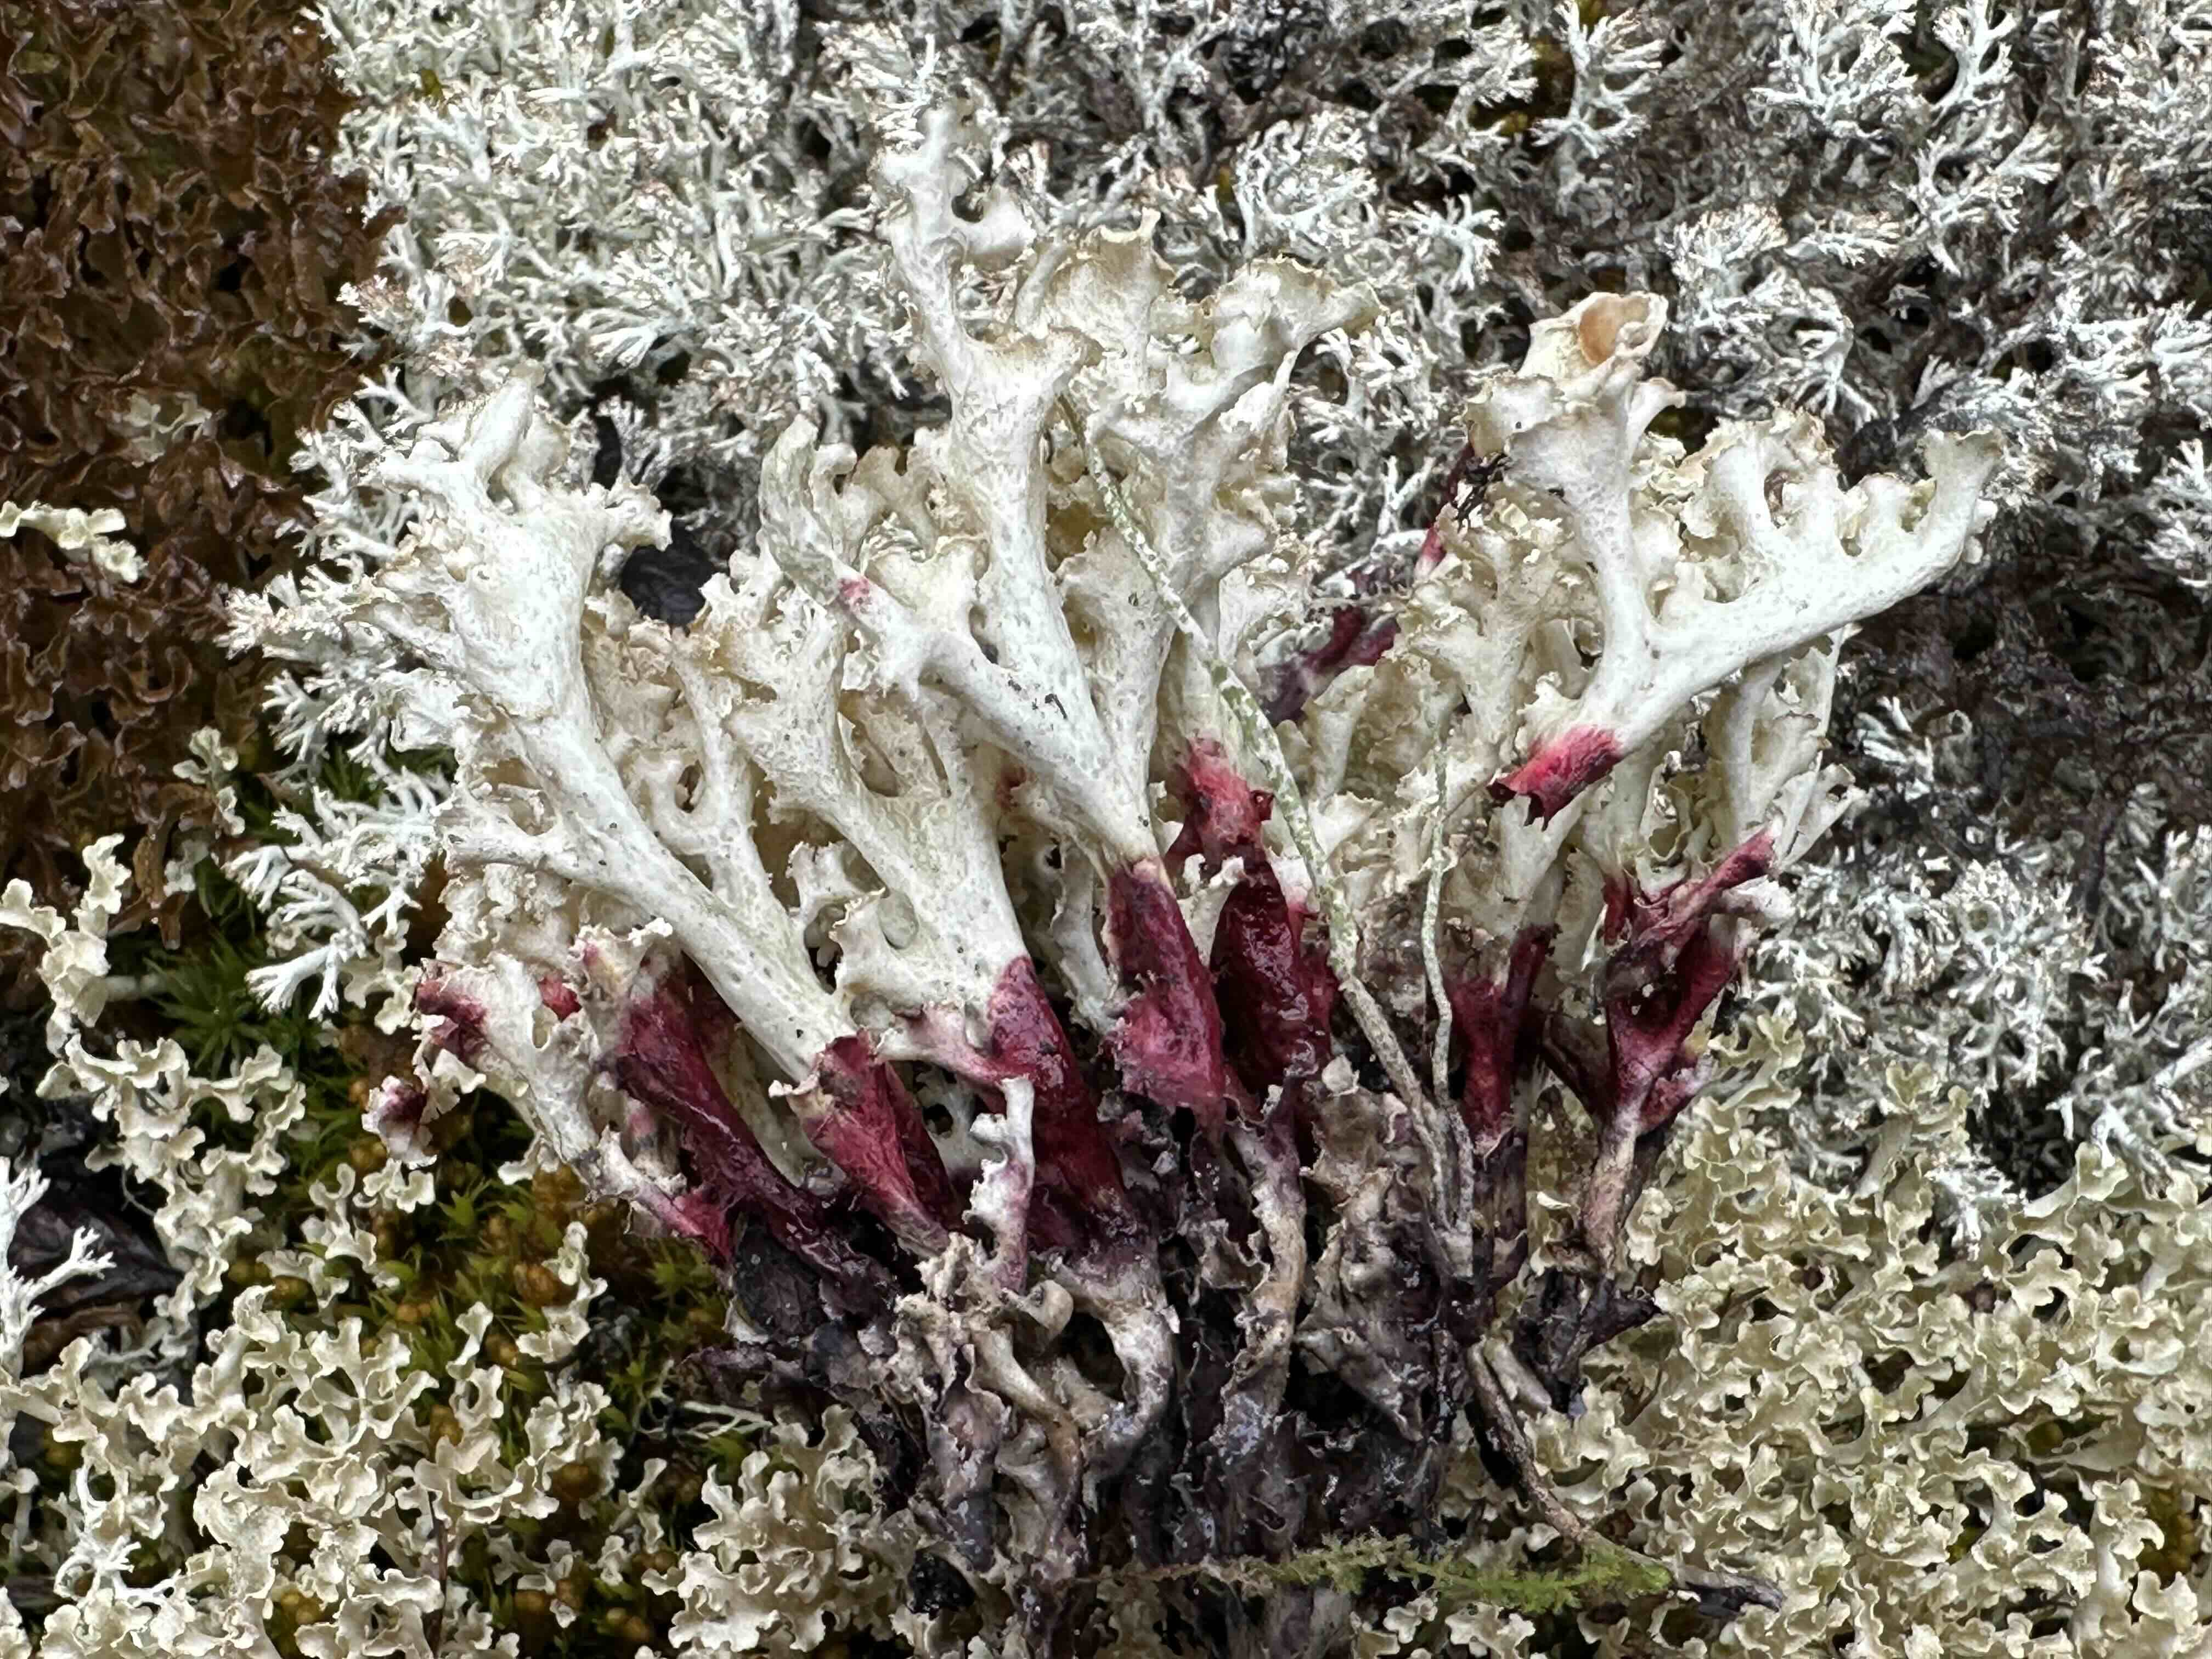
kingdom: Fungi
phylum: Ascomycota
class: Lecanoromycetes
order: Lecanorales
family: Parmeliaceae
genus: Nephromopsis
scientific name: Nephromopsis cucullata
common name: kræmmerhus-kruslav
